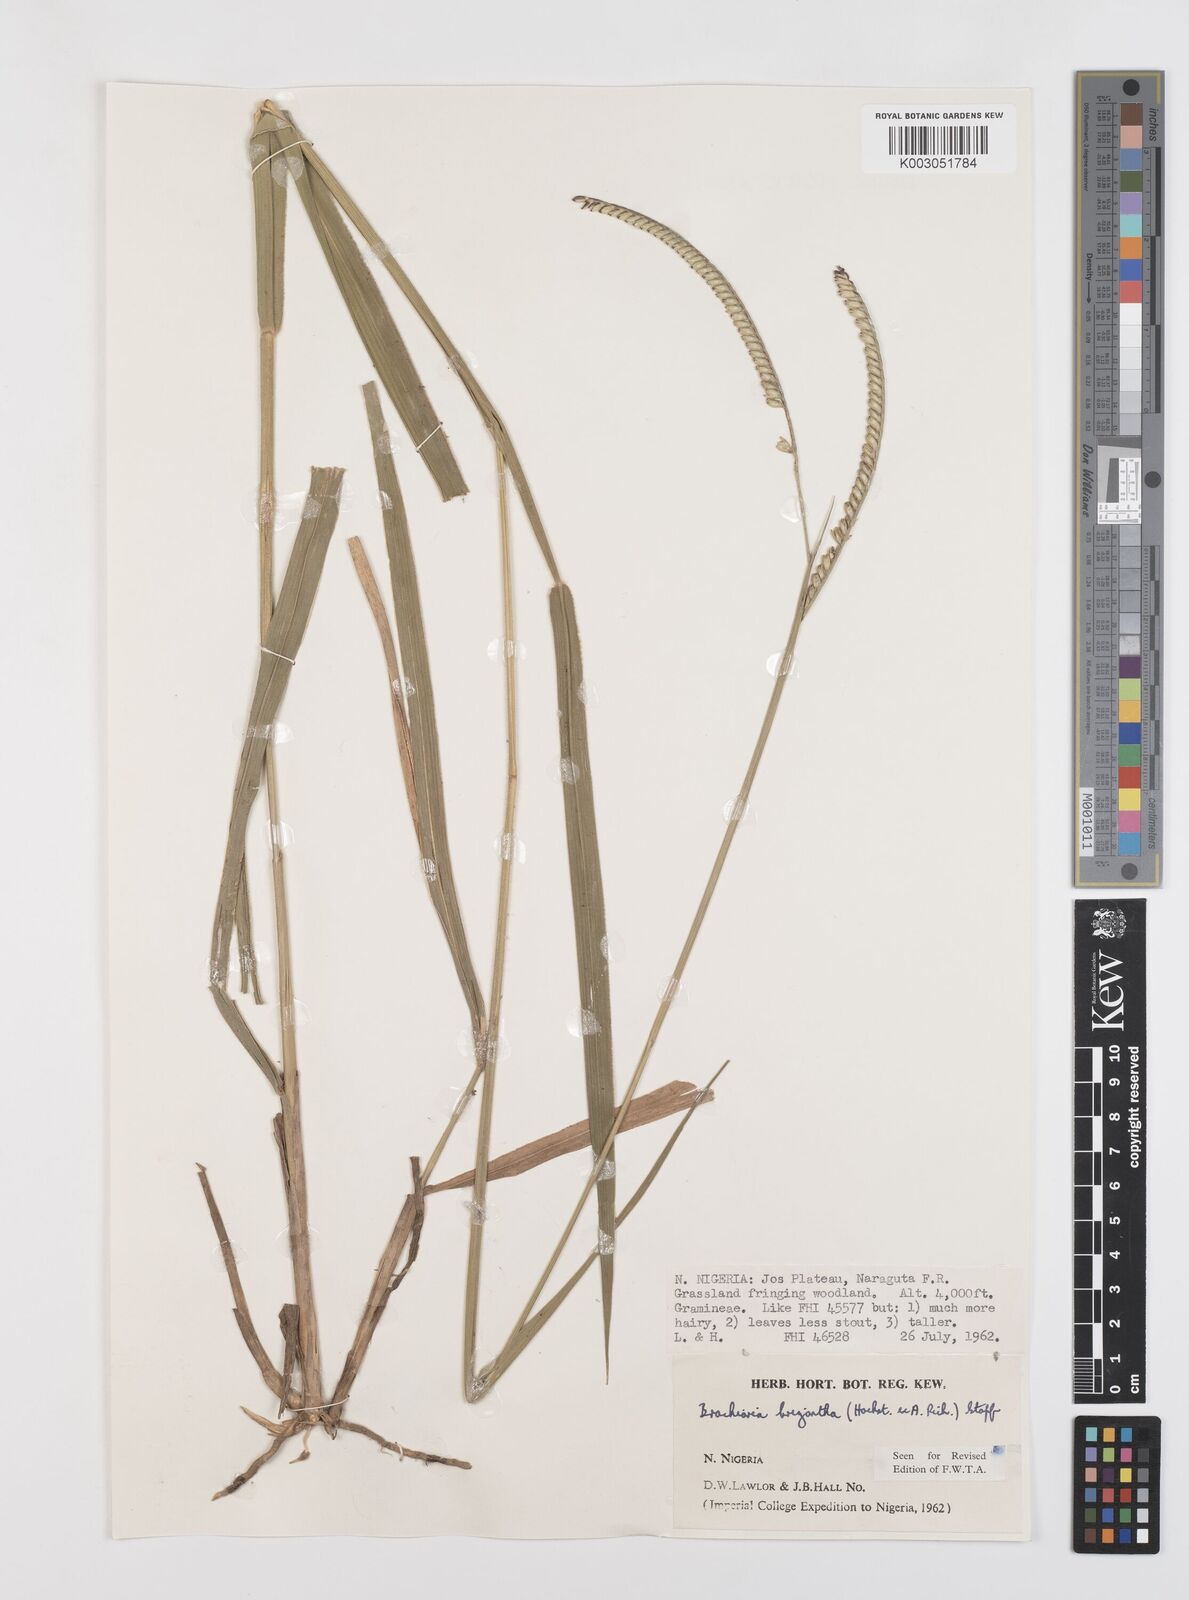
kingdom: Plantae
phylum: Tracheophyta
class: Liliopsida
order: Poales
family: Poaceae
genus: Urochloa
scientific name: Urochloa brizantha
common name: Palisade signalgrass
